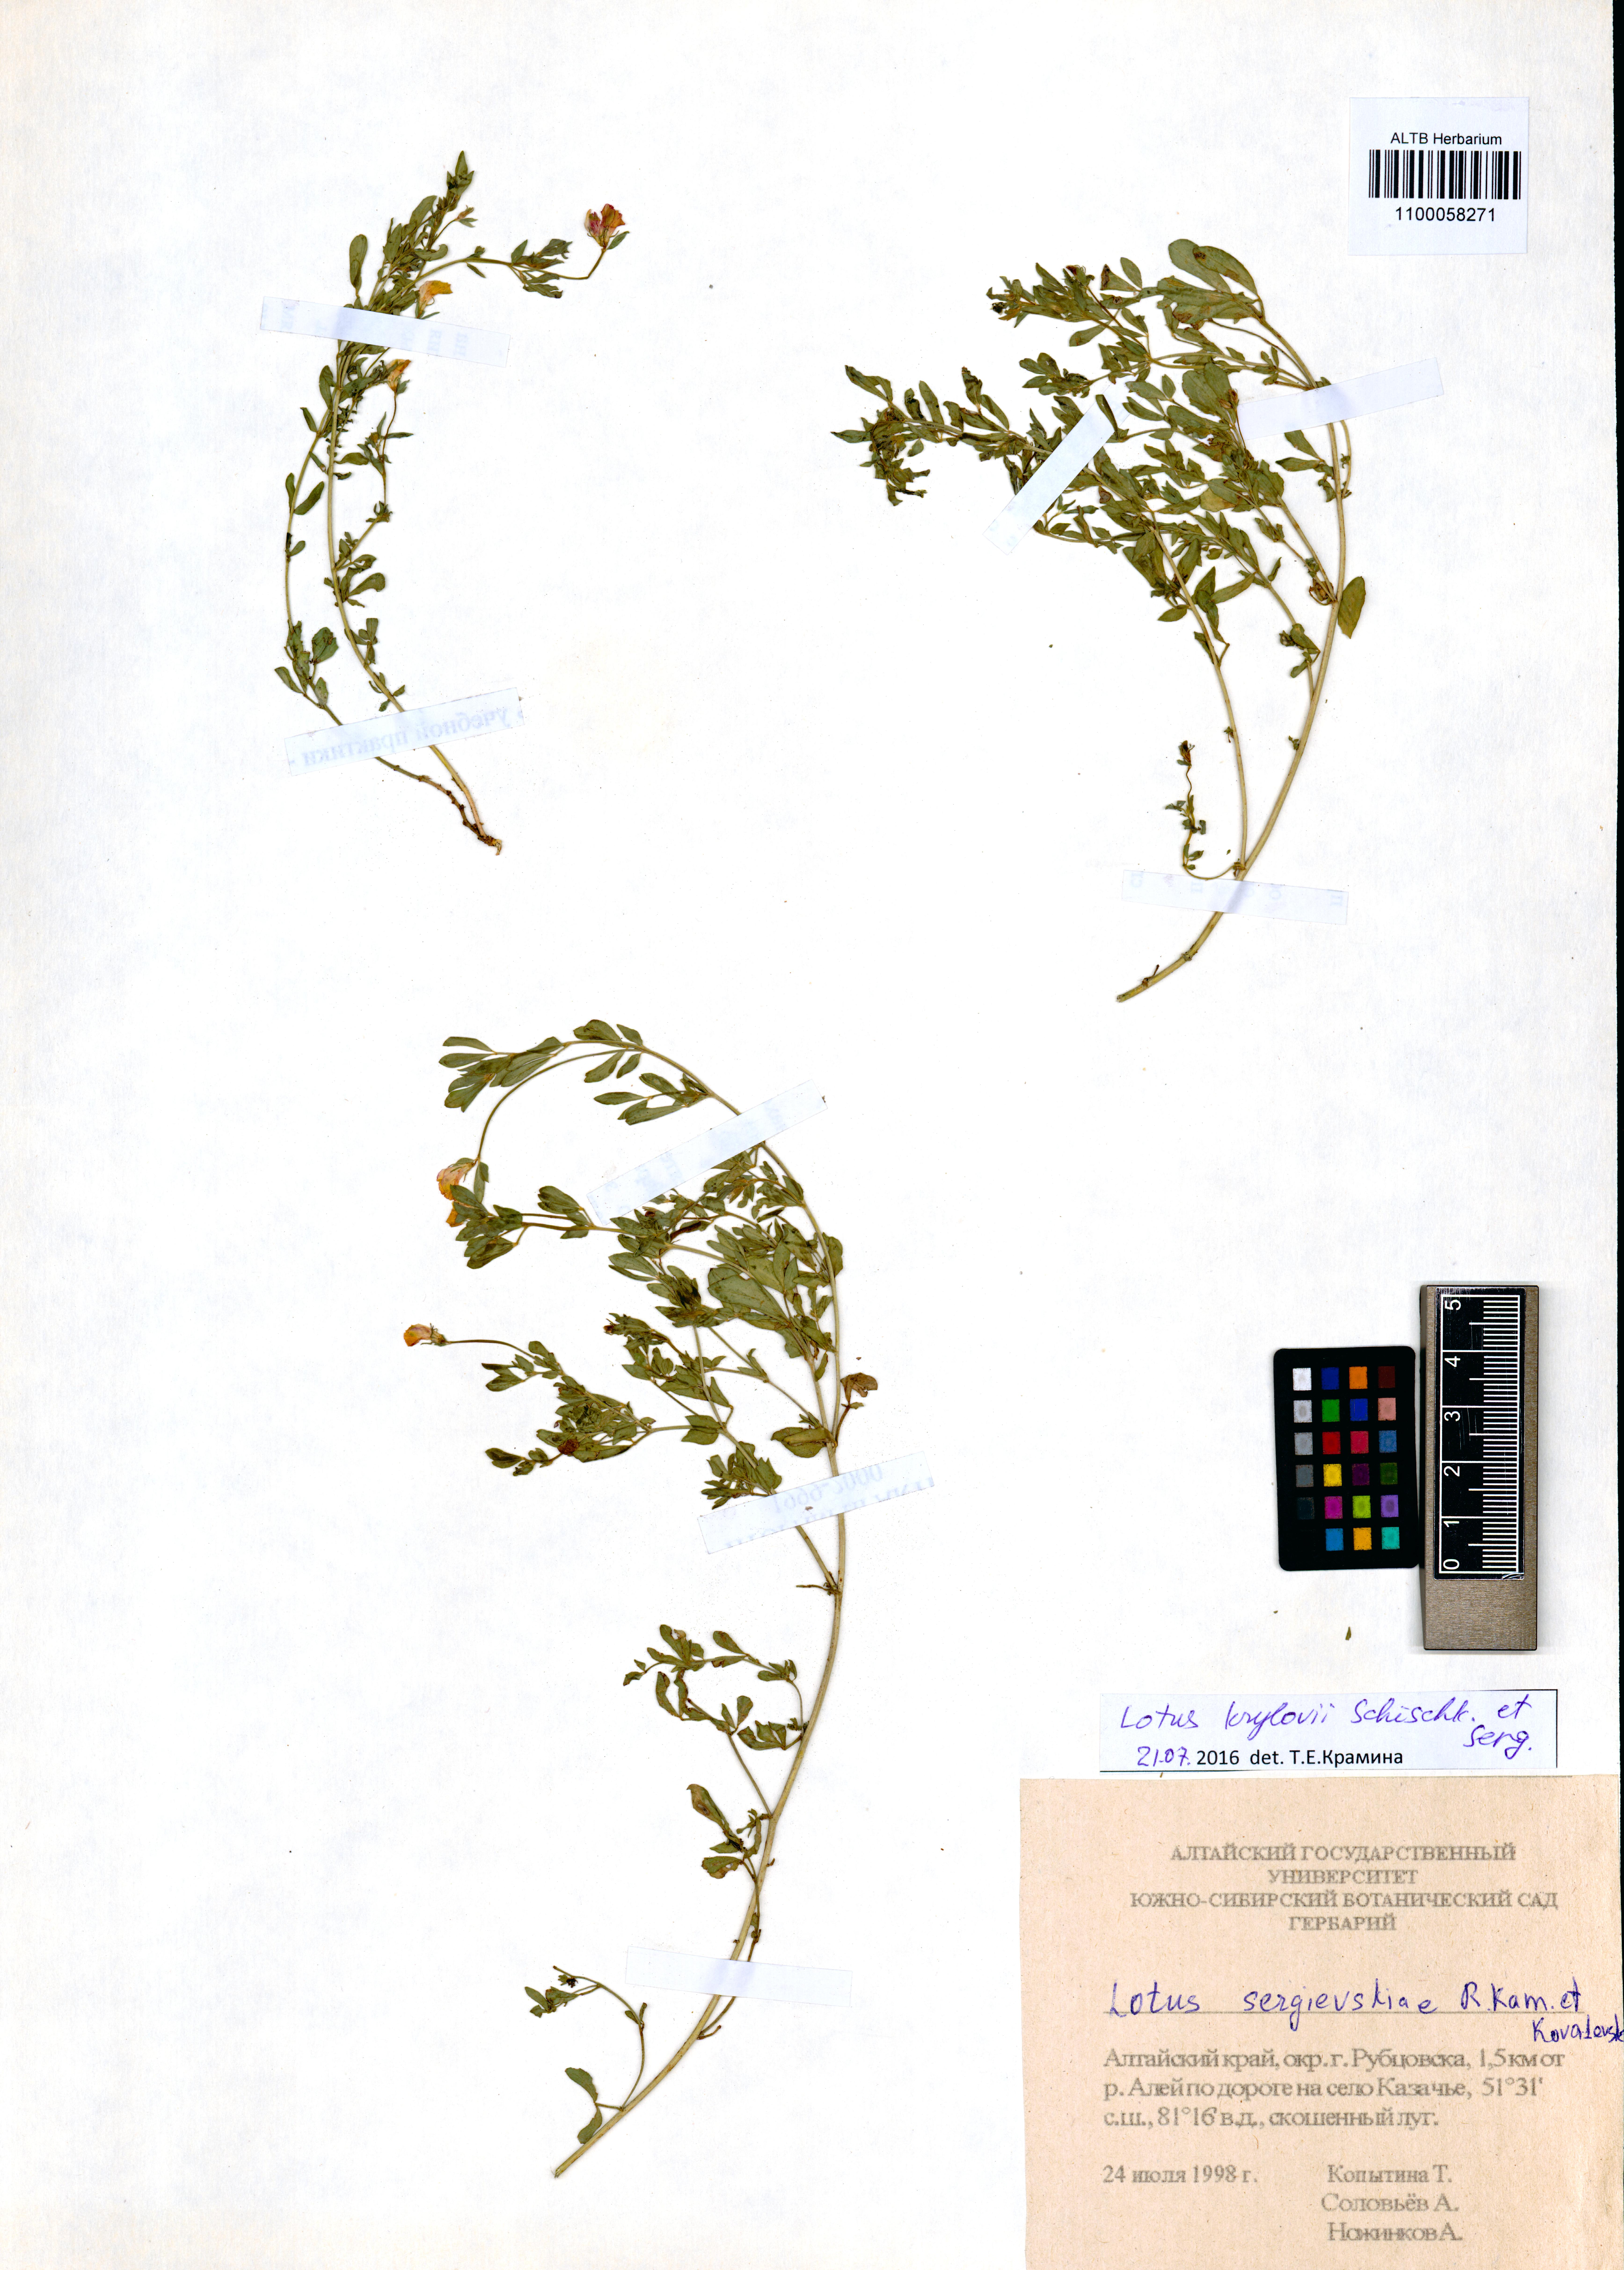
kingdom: Plantae
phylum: Tracheophyta
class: Magnoliopsida
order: Fabales
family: Fabaceae
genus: Lotus
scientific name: Lotus krylovii
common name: Krylov's bird's-foot trefoil
